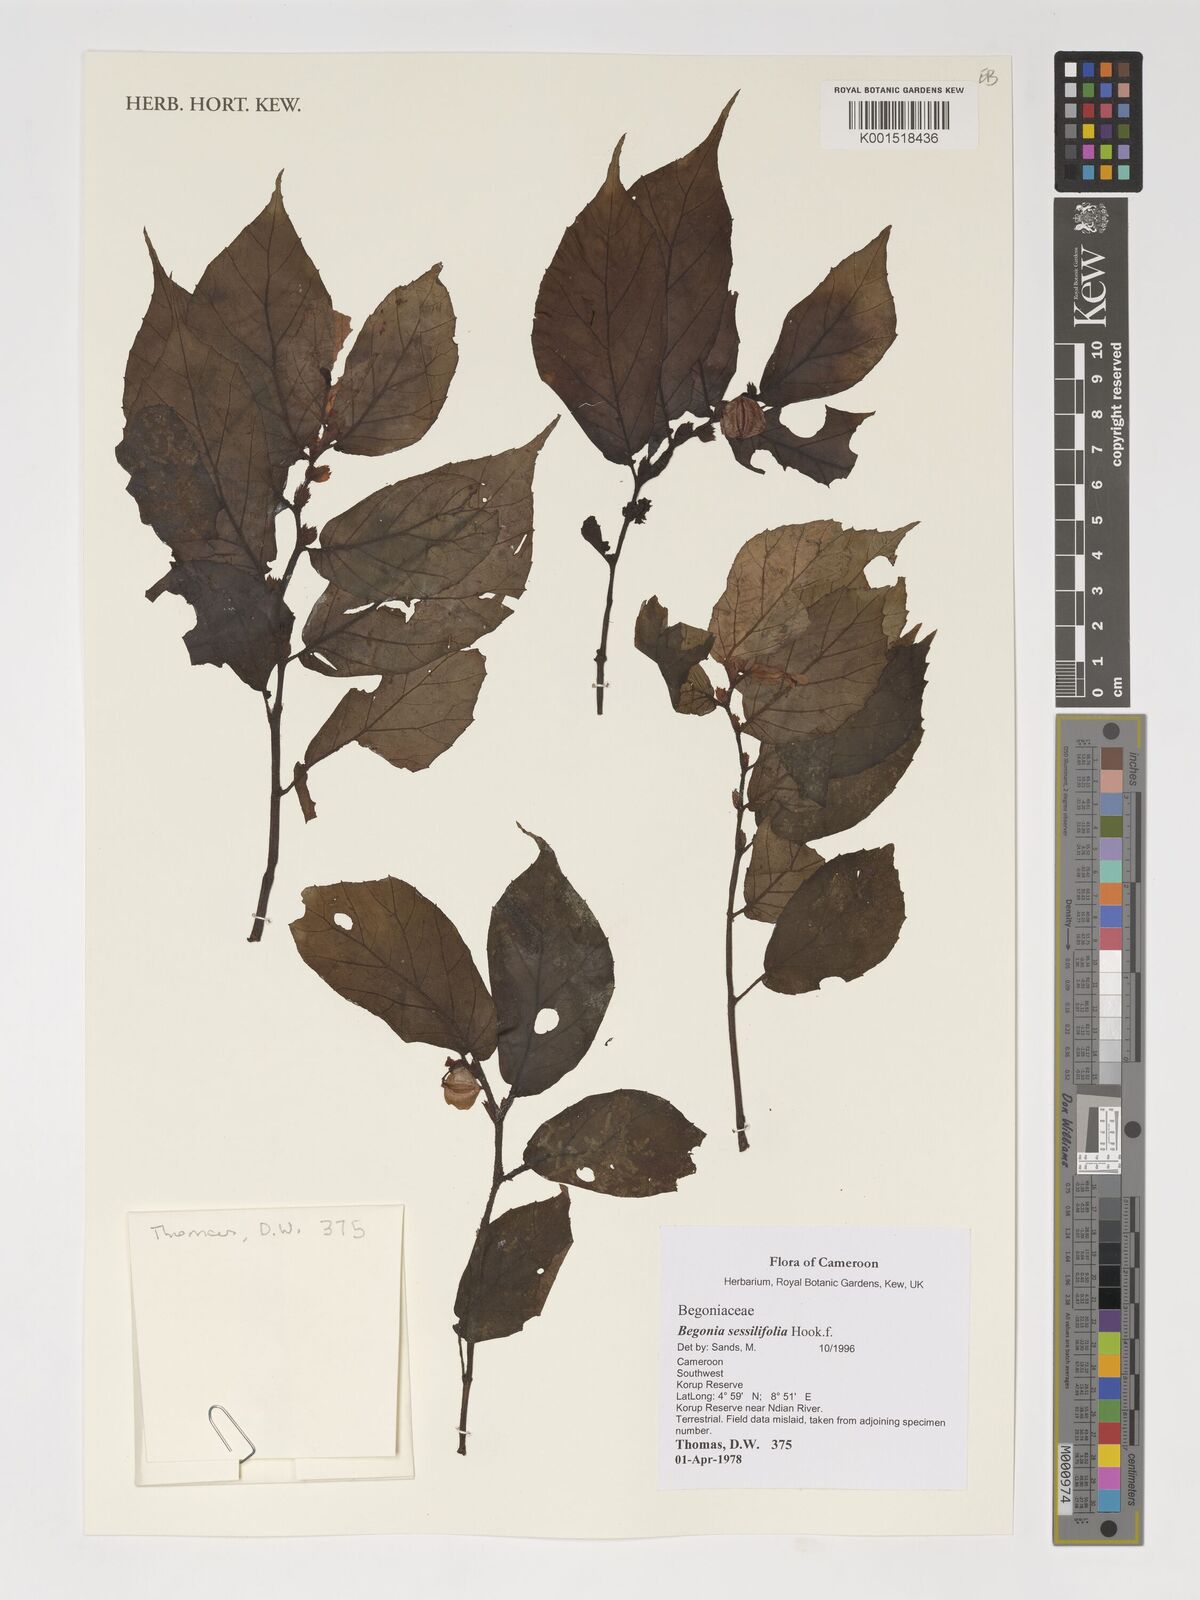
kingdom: Plantae
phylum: Tracheophyta
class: Magnoliopsida
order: Cucurbitales
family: Begoniaceae
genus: Begonia
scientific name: Begonia sessilifolia
